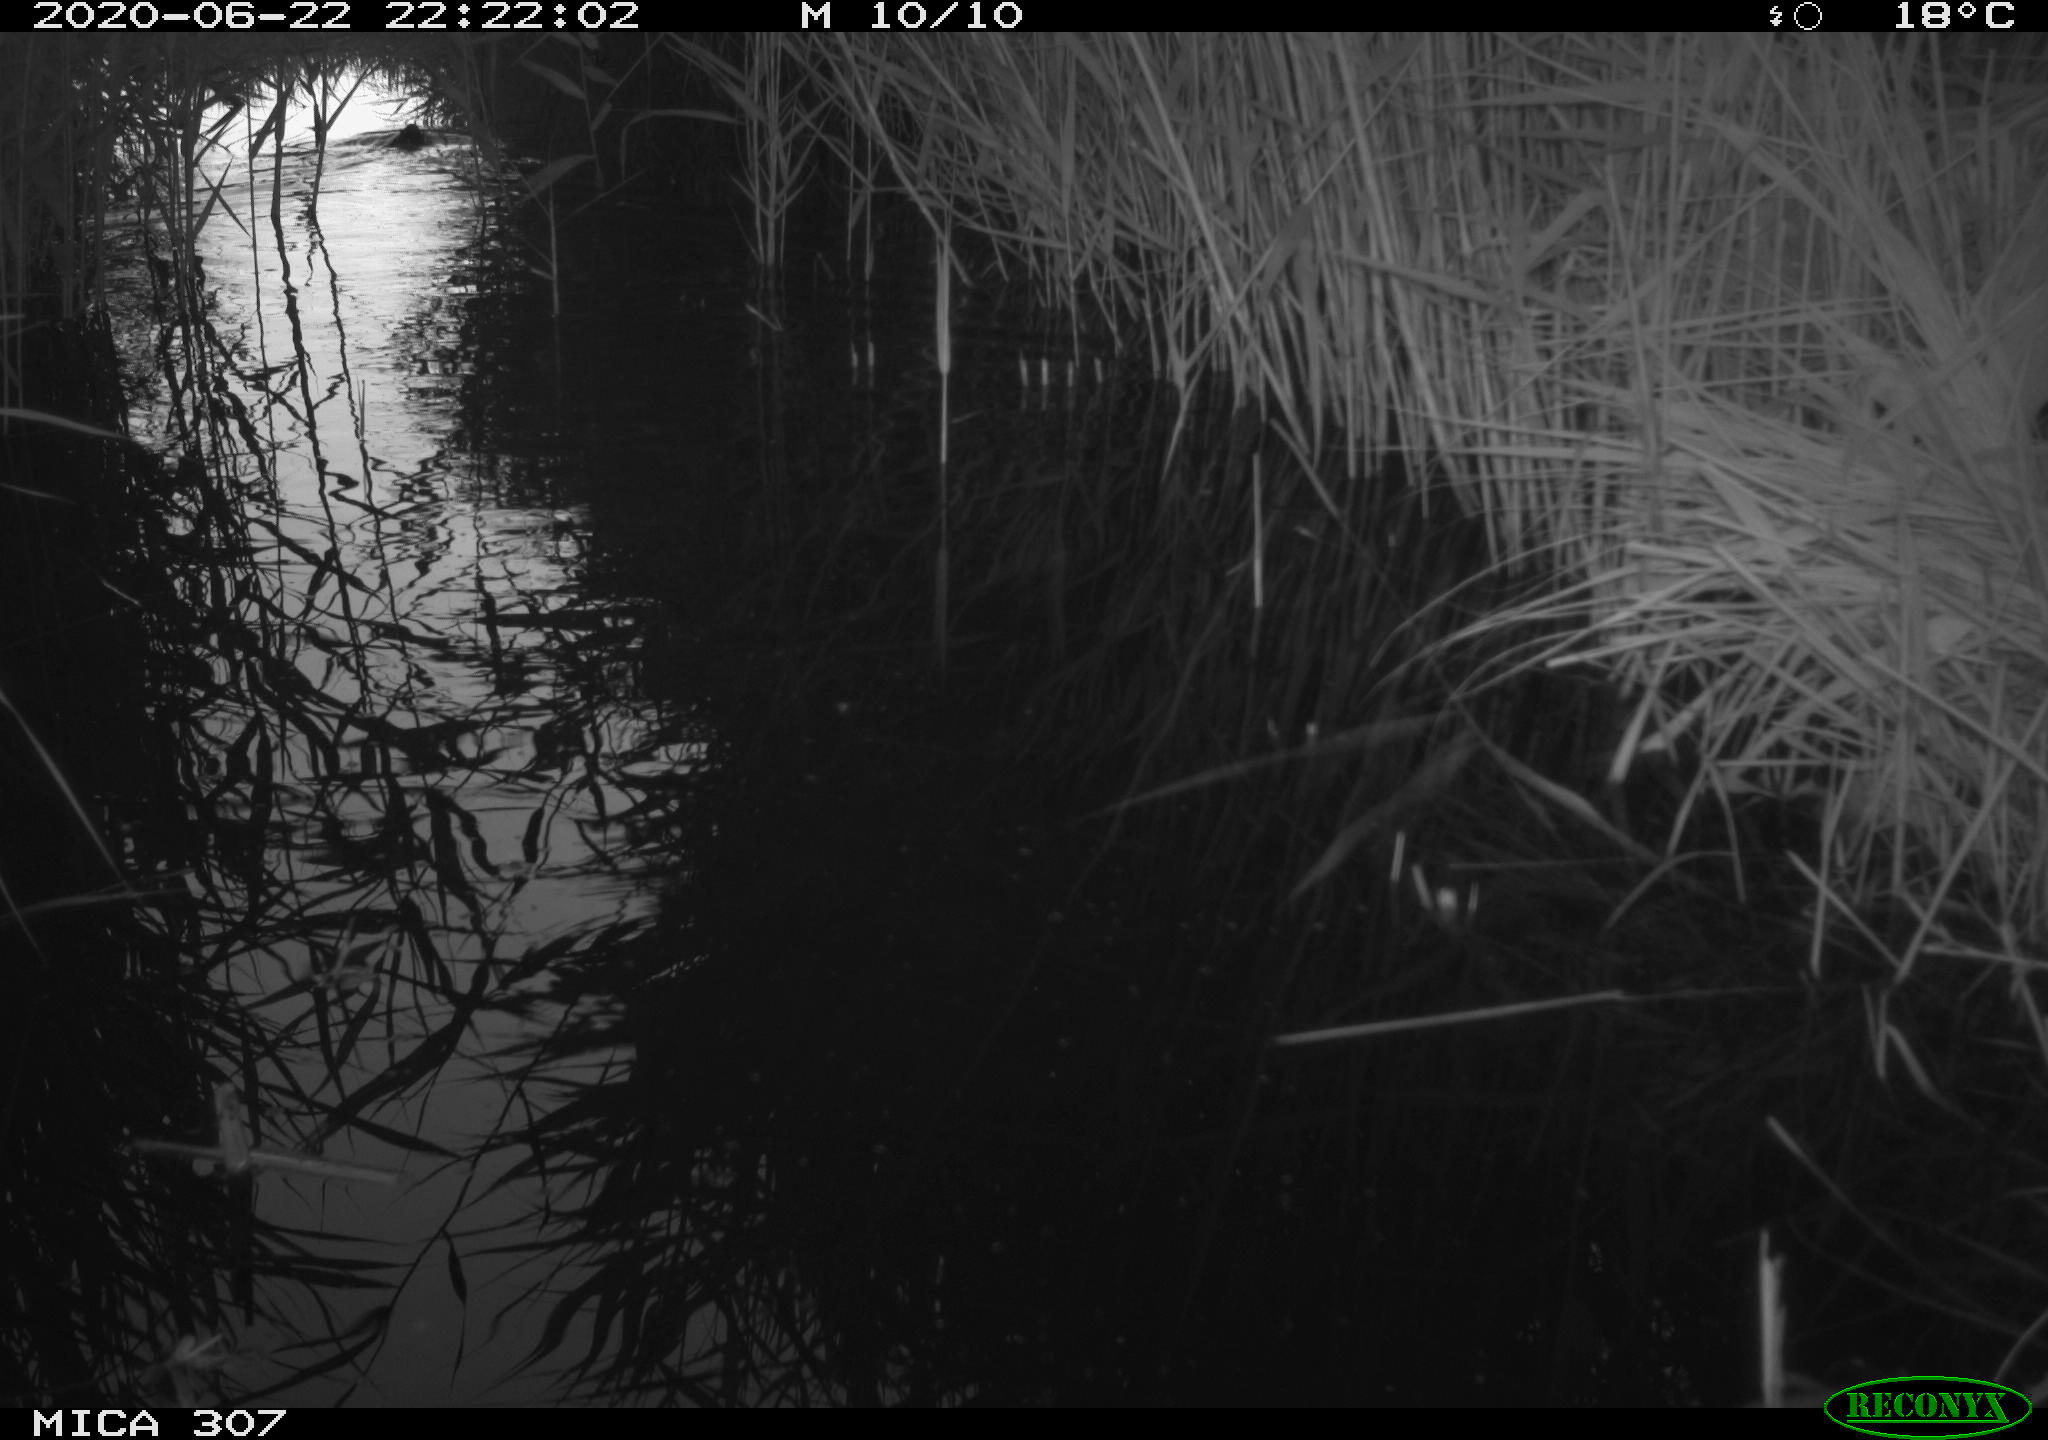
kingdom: Animalia
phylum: Chordata
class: Mammalia
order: Rodentia
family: Muridae
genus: Rattus
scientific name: Rattus norvegicus
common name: Brown rat
